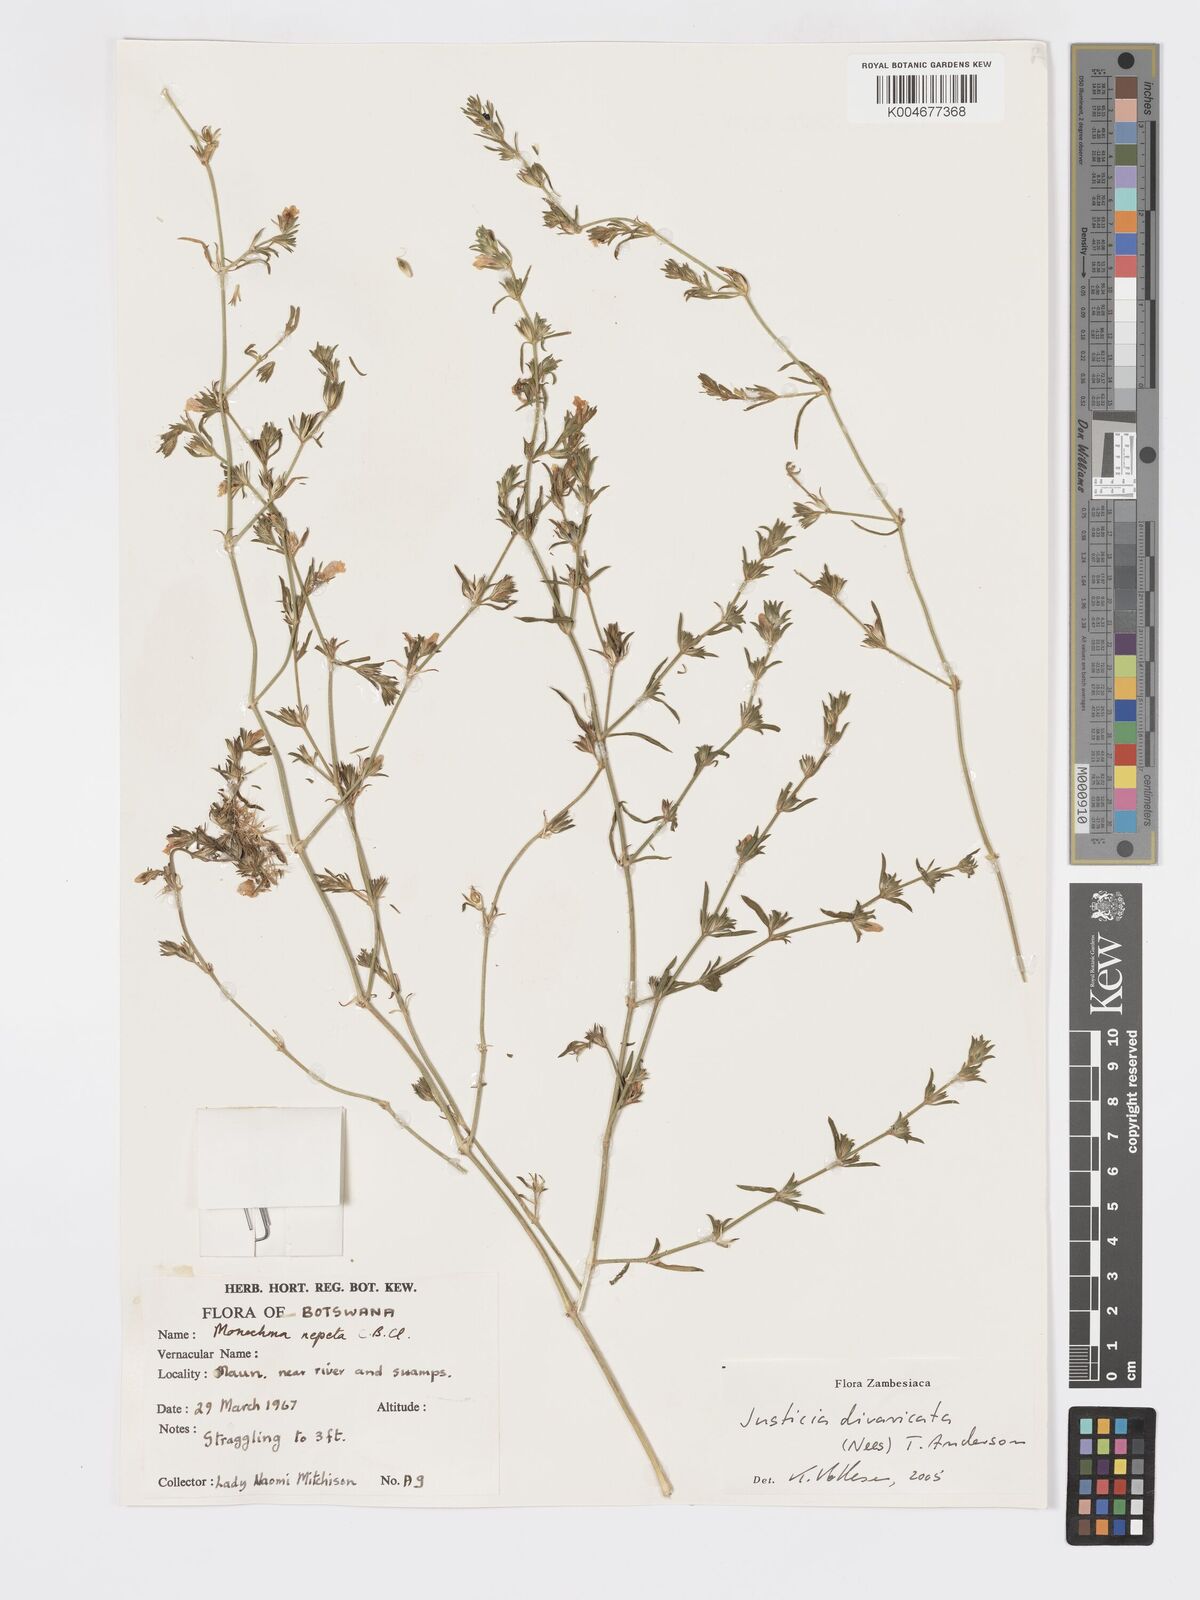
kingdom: Plantae
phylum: Tracheophyta
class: Magnoliopsida
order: Lamiales
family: Acanthaceae
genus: Pogonospermum
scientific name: Pogonospermum
